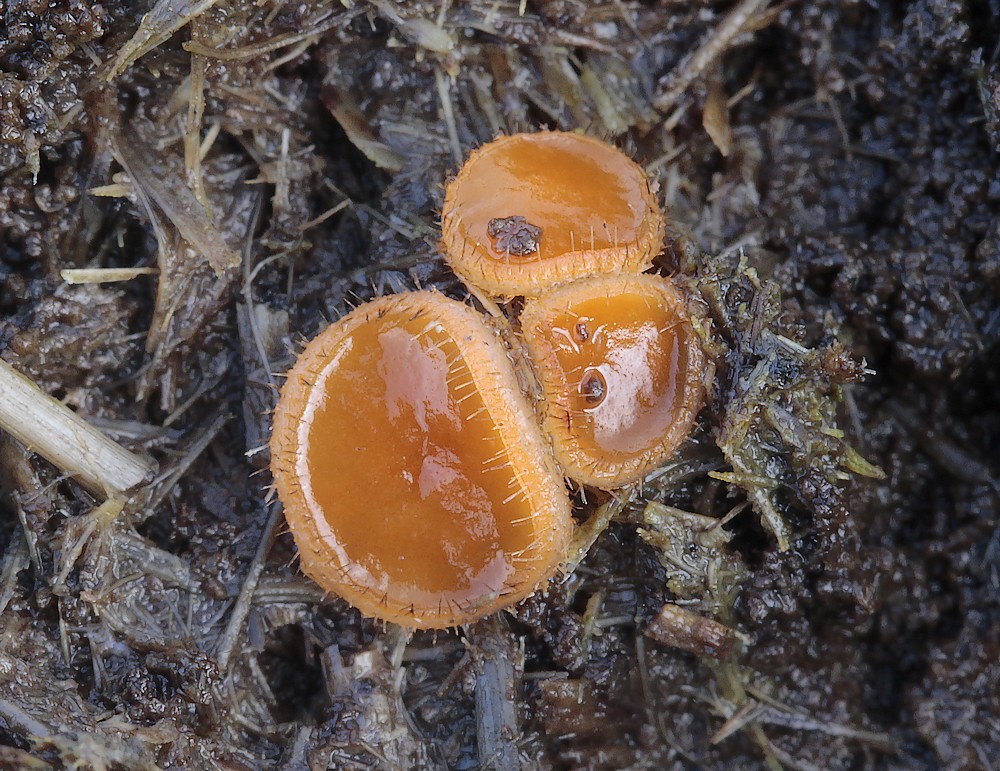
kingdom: Fungi
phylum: Ascomycota
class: Pezizomycetes
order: Pezizales
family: Pyronemataceae
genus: Cheilymenia
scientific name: Cheilymenia fimicola
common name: møg-hårbæger
